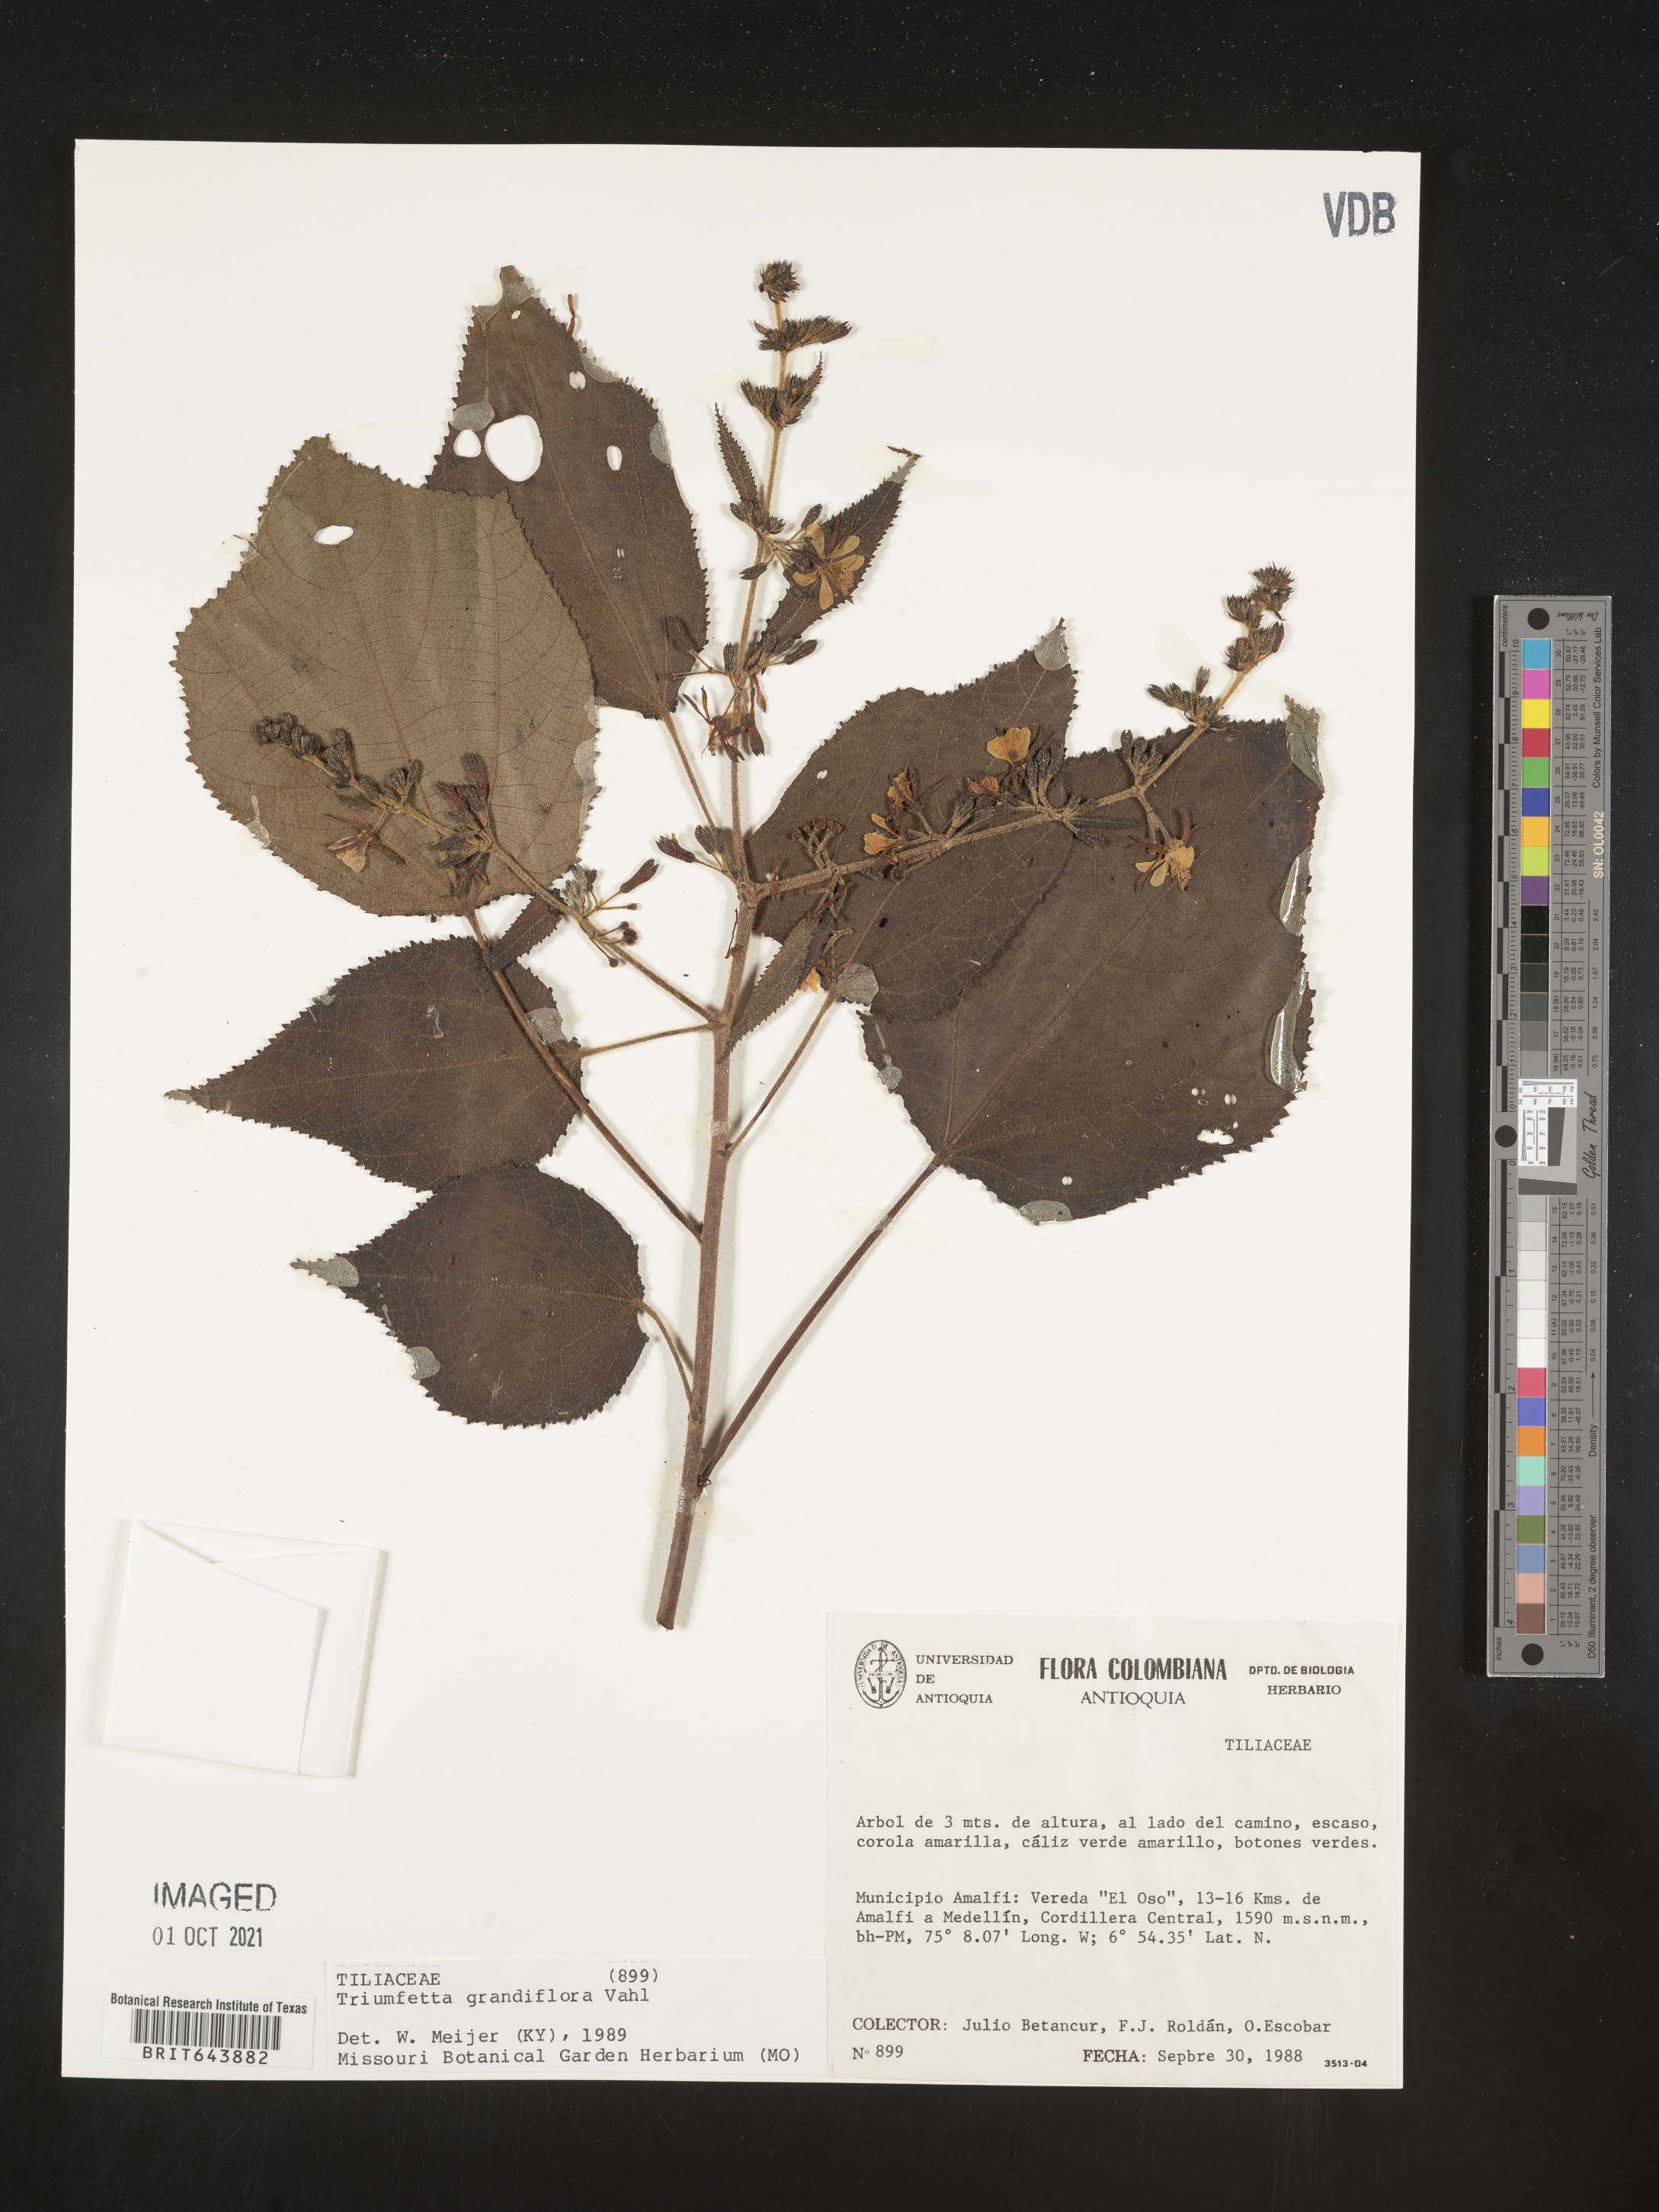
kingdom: Plantae
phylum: Tracheophyta
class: Magnoliopsida
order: Malvales
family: Malvaceae
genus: Triumfetta
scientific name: Triumfetta
